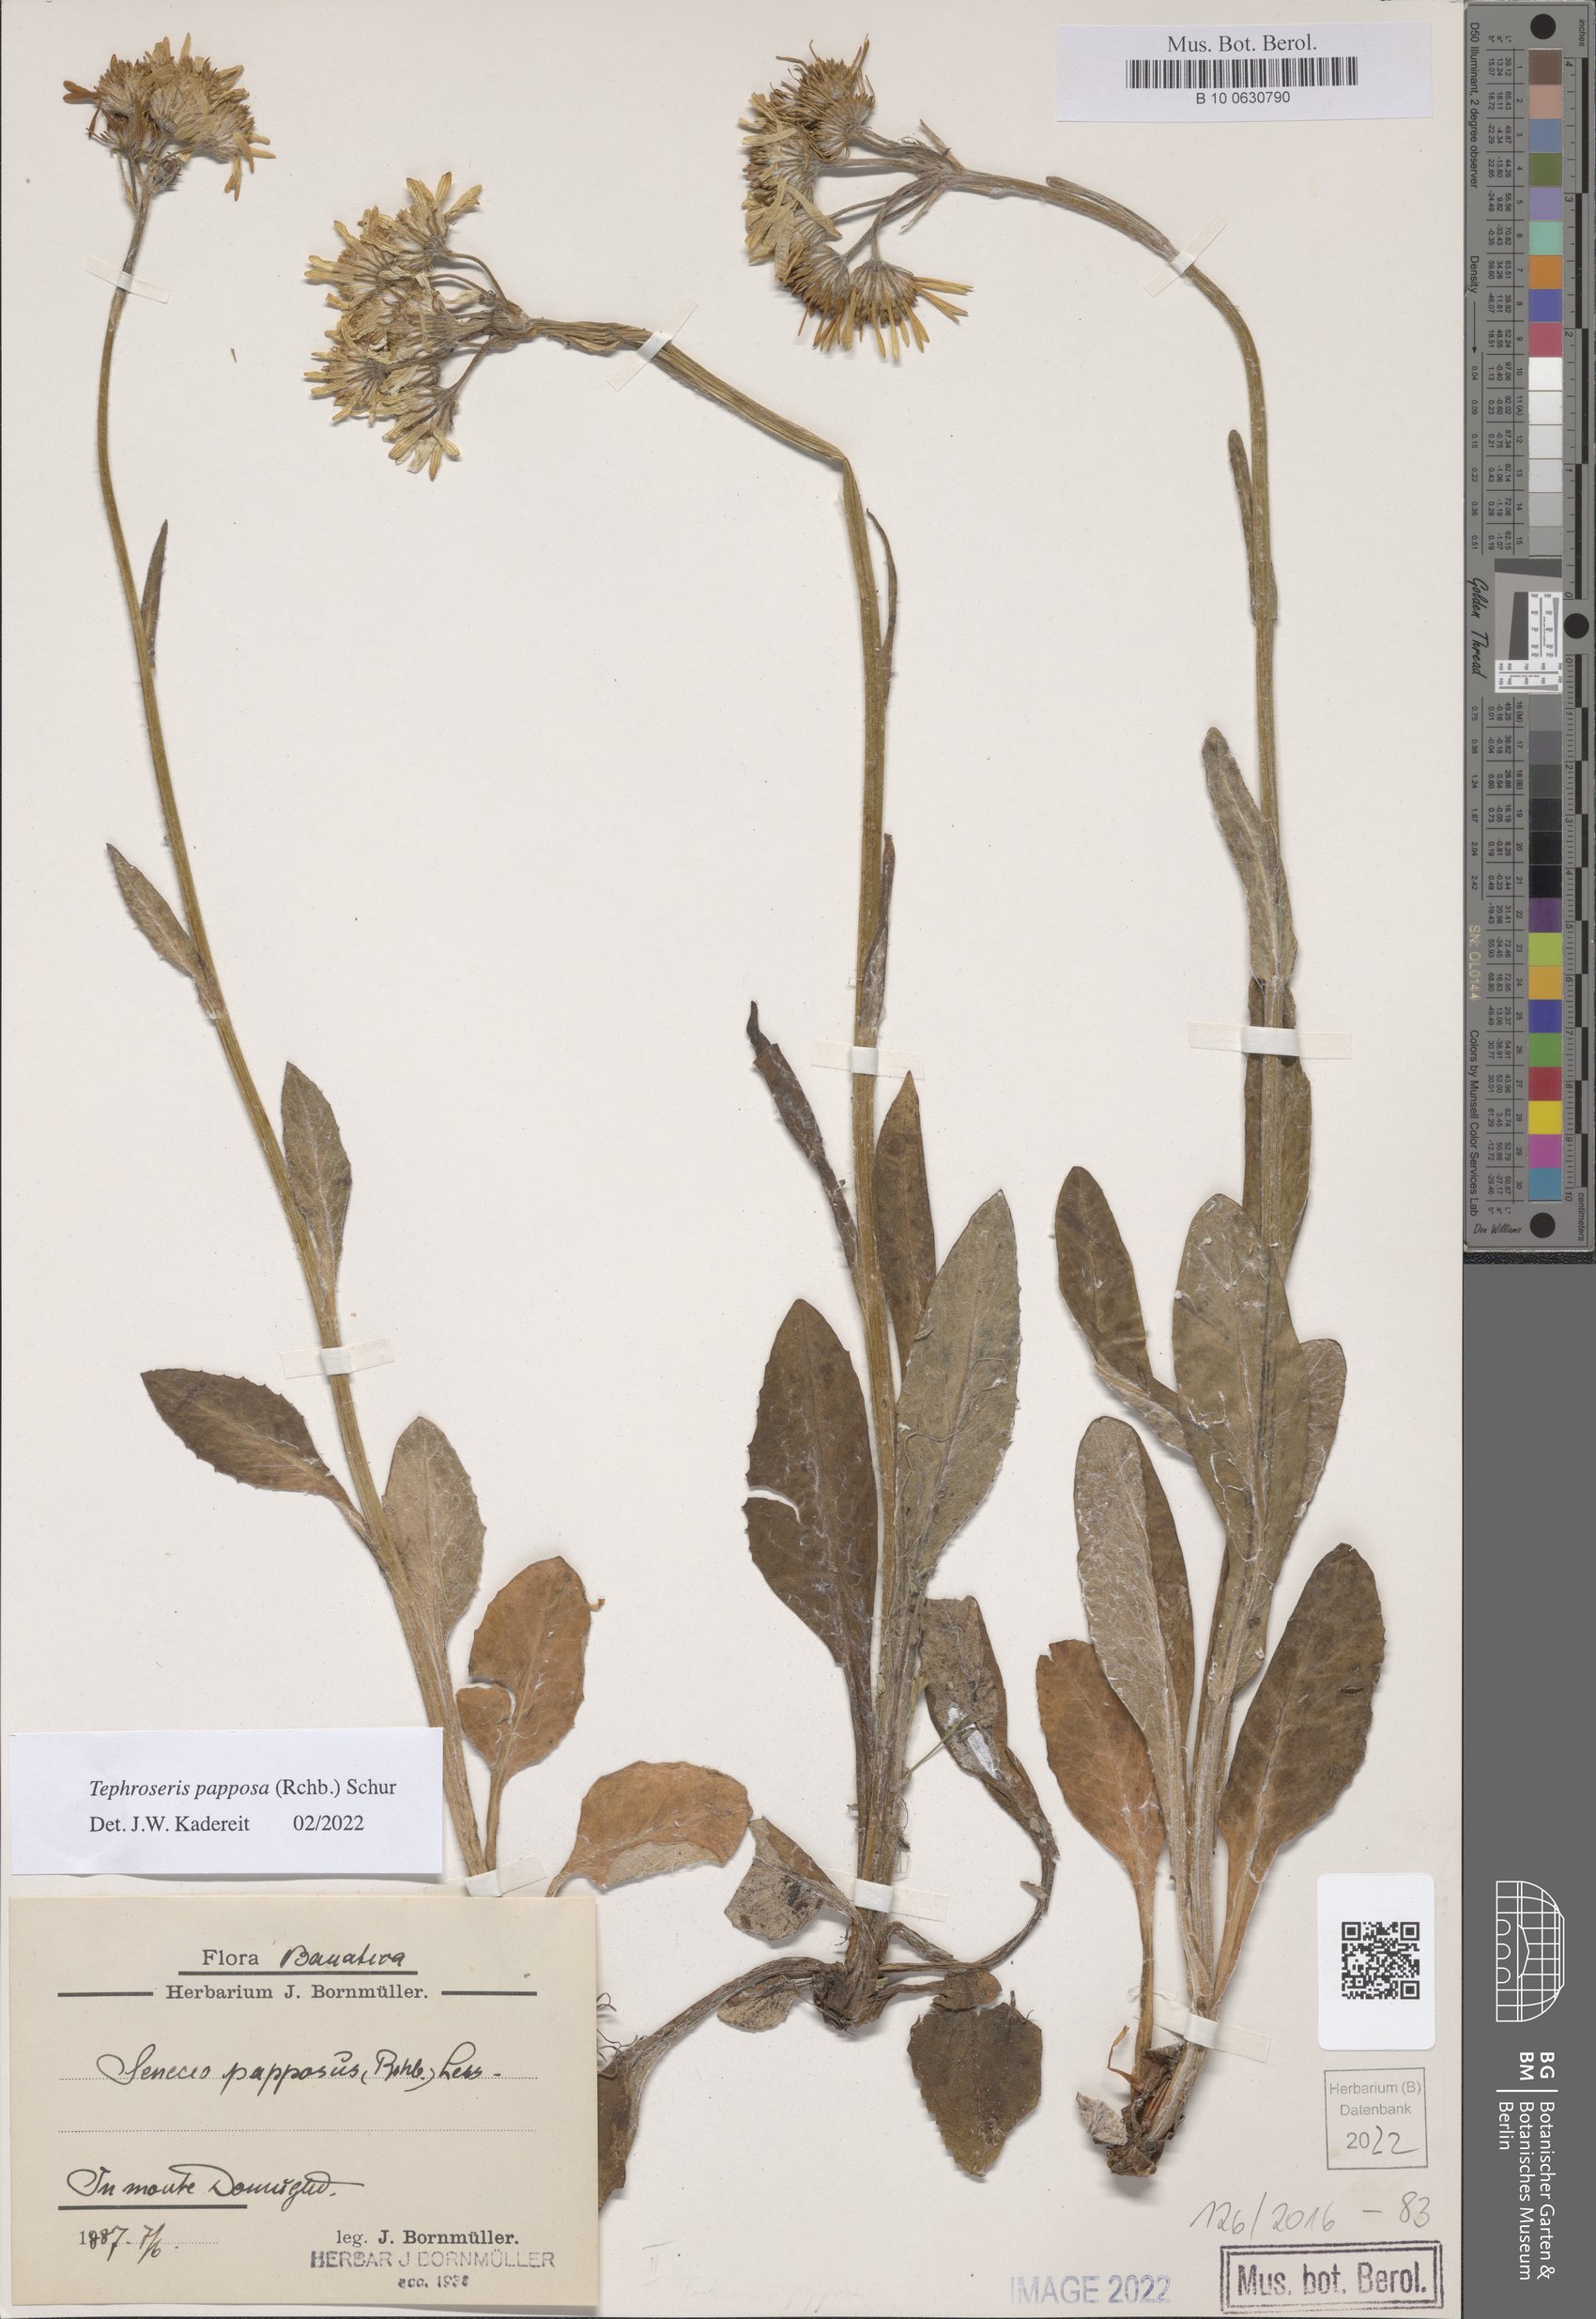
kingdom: Plantae
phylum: Tracheophyta
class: Magnoliopsida
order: Asterales
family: Asteraceae
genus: Tephroseris
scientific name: Tephroseris papposa
